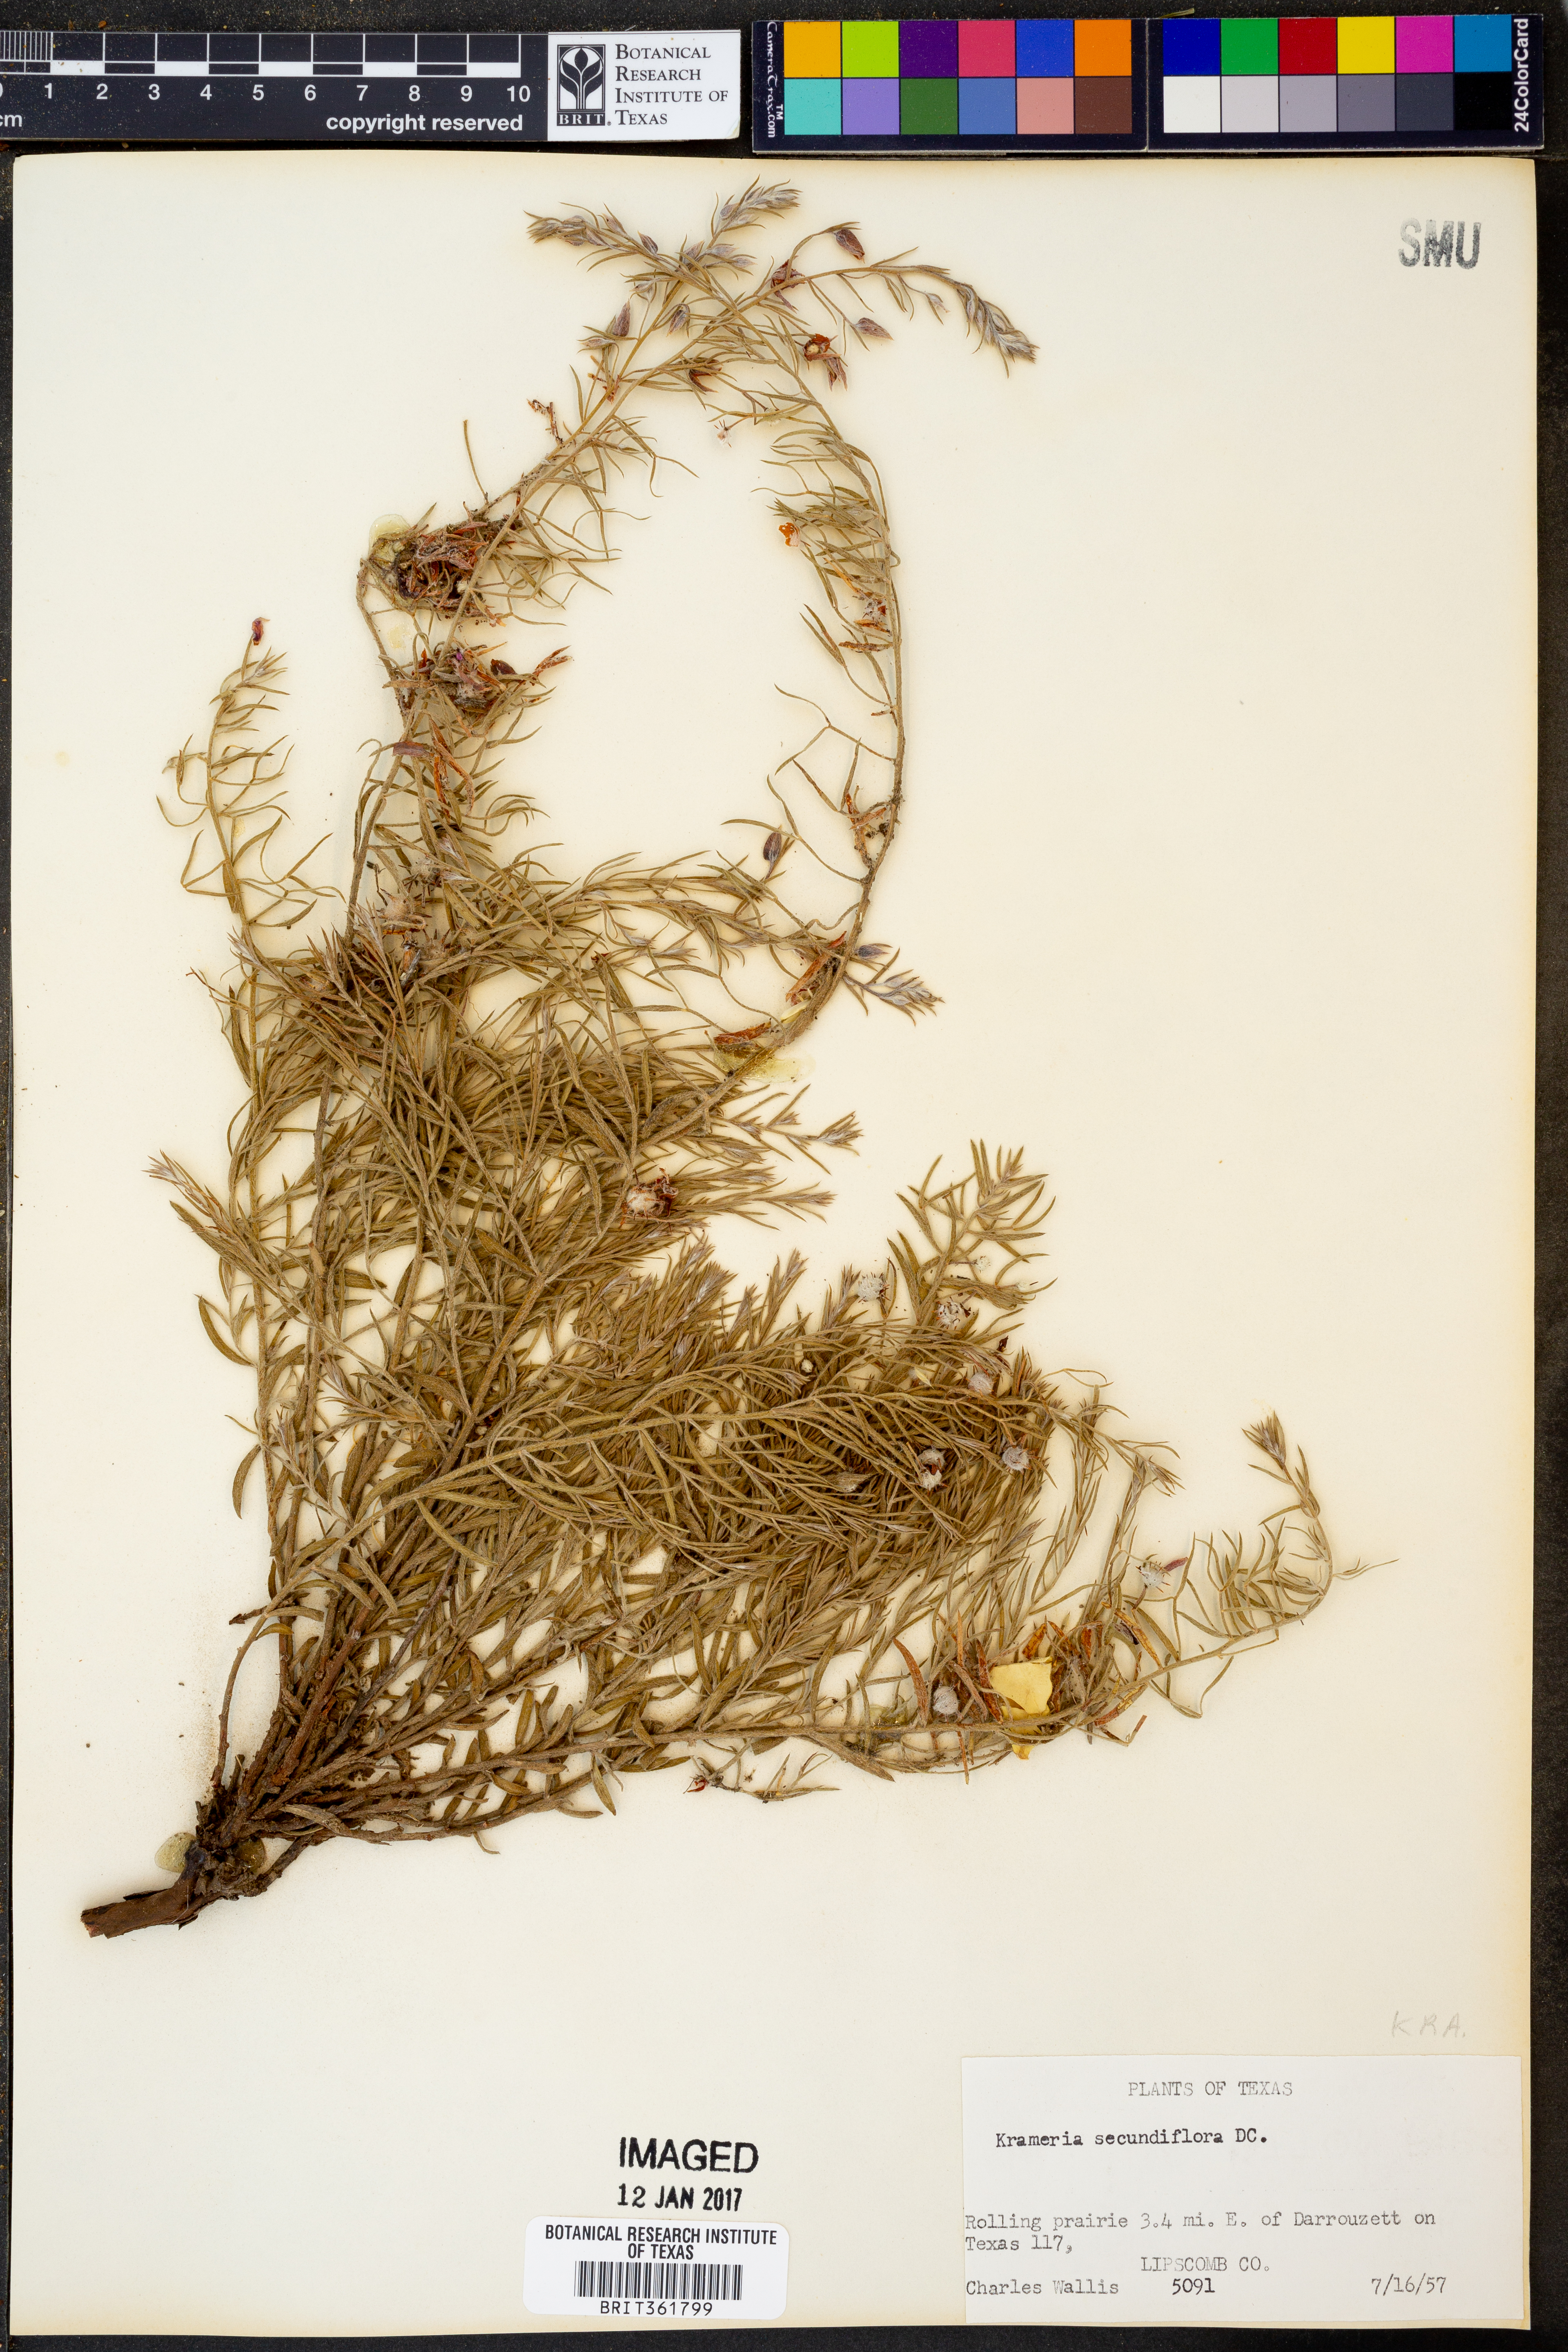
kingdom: Plantae
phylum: Tracheophyta
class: Magnoliopsida
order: Zygophyllales
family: Krameriaceae
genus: Krameria
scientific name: Krameria secundiflora
